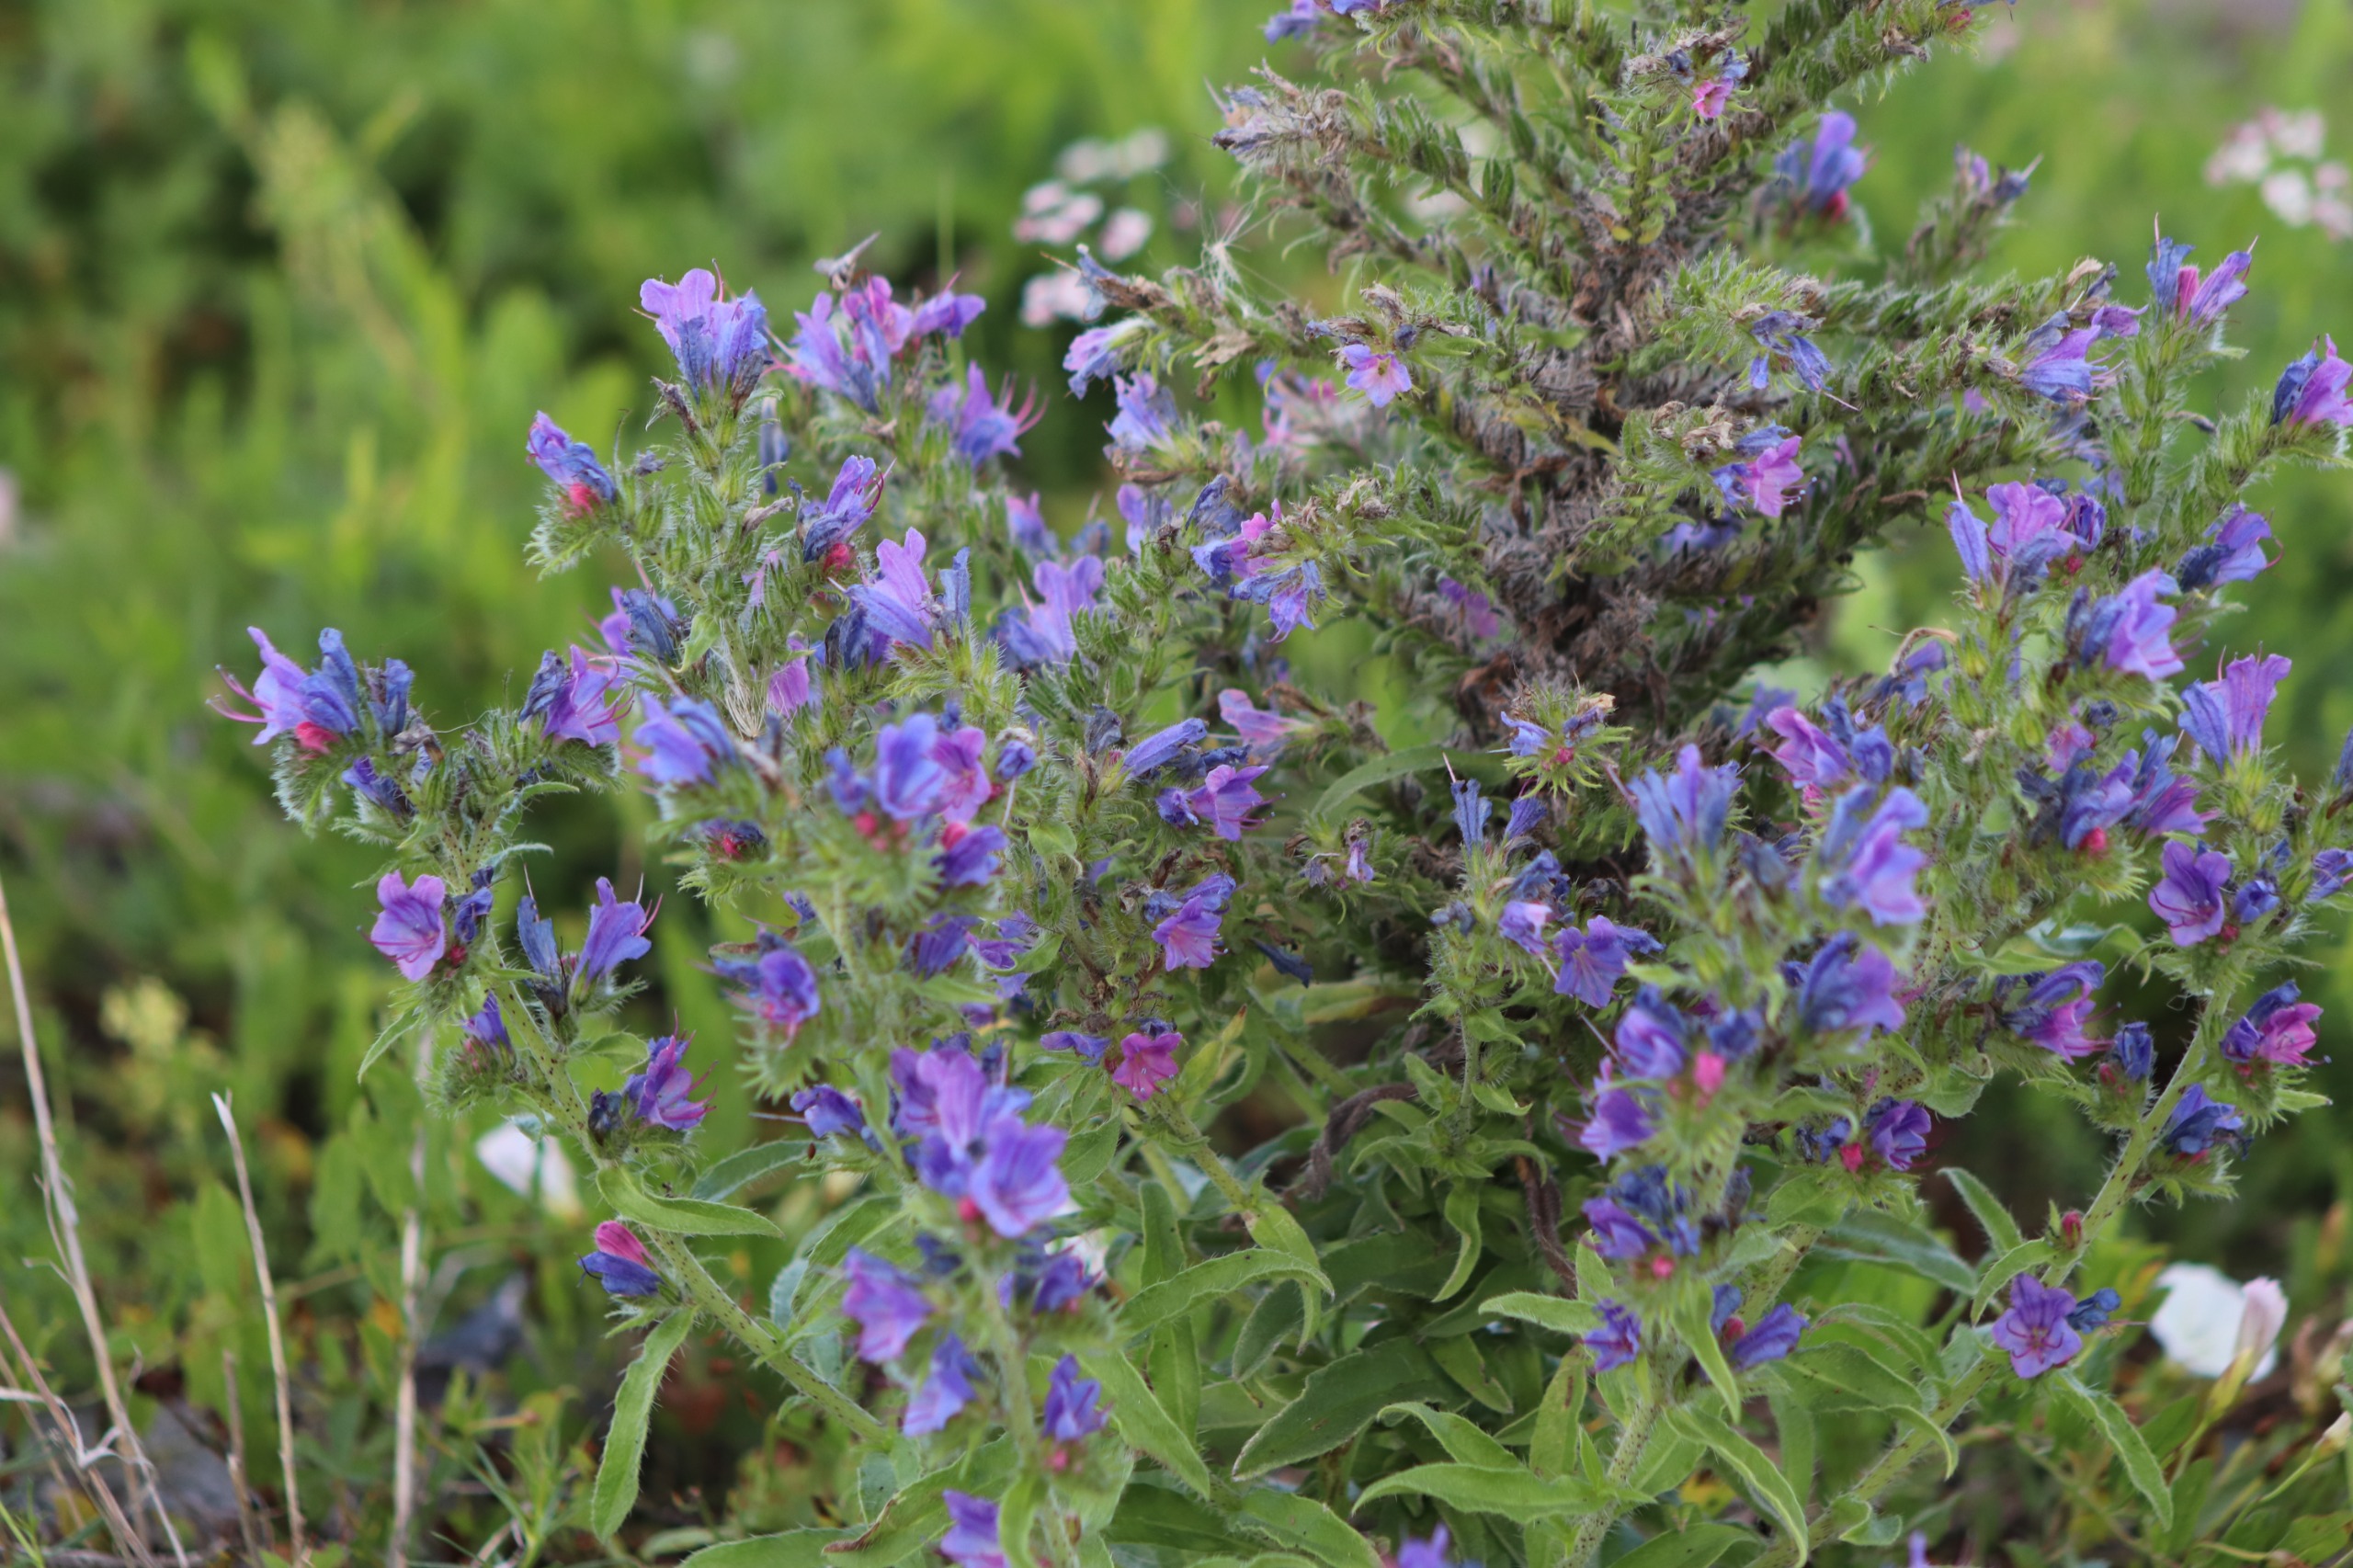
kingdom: Plantae
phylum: Tracheophyta
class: Magnoliopsida
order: Boraginales
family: Boraginaceae
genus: Echium
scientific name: Echium vulgare
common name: Slangehoved
